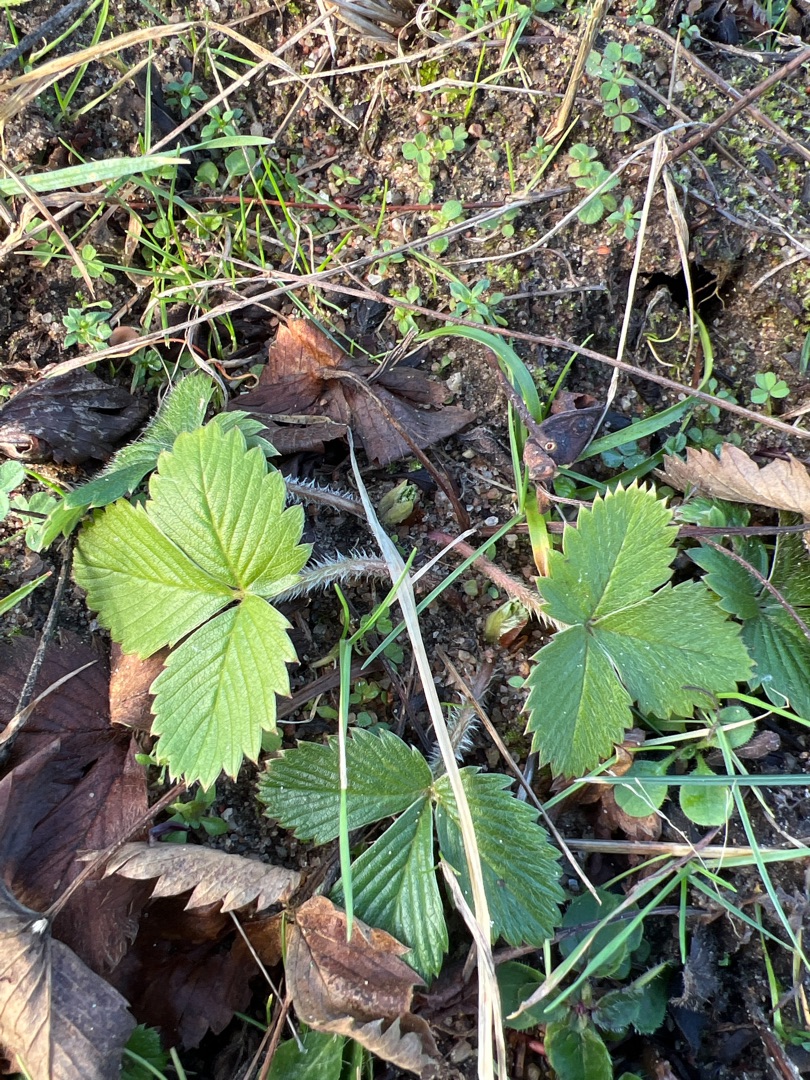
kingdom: Plantae
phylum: Tracheophyta
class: Magnoliopsida
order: Rosales
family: Rosaceae
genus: Fragaria
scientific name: Fragaria vesca
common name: Skov-jordbær
